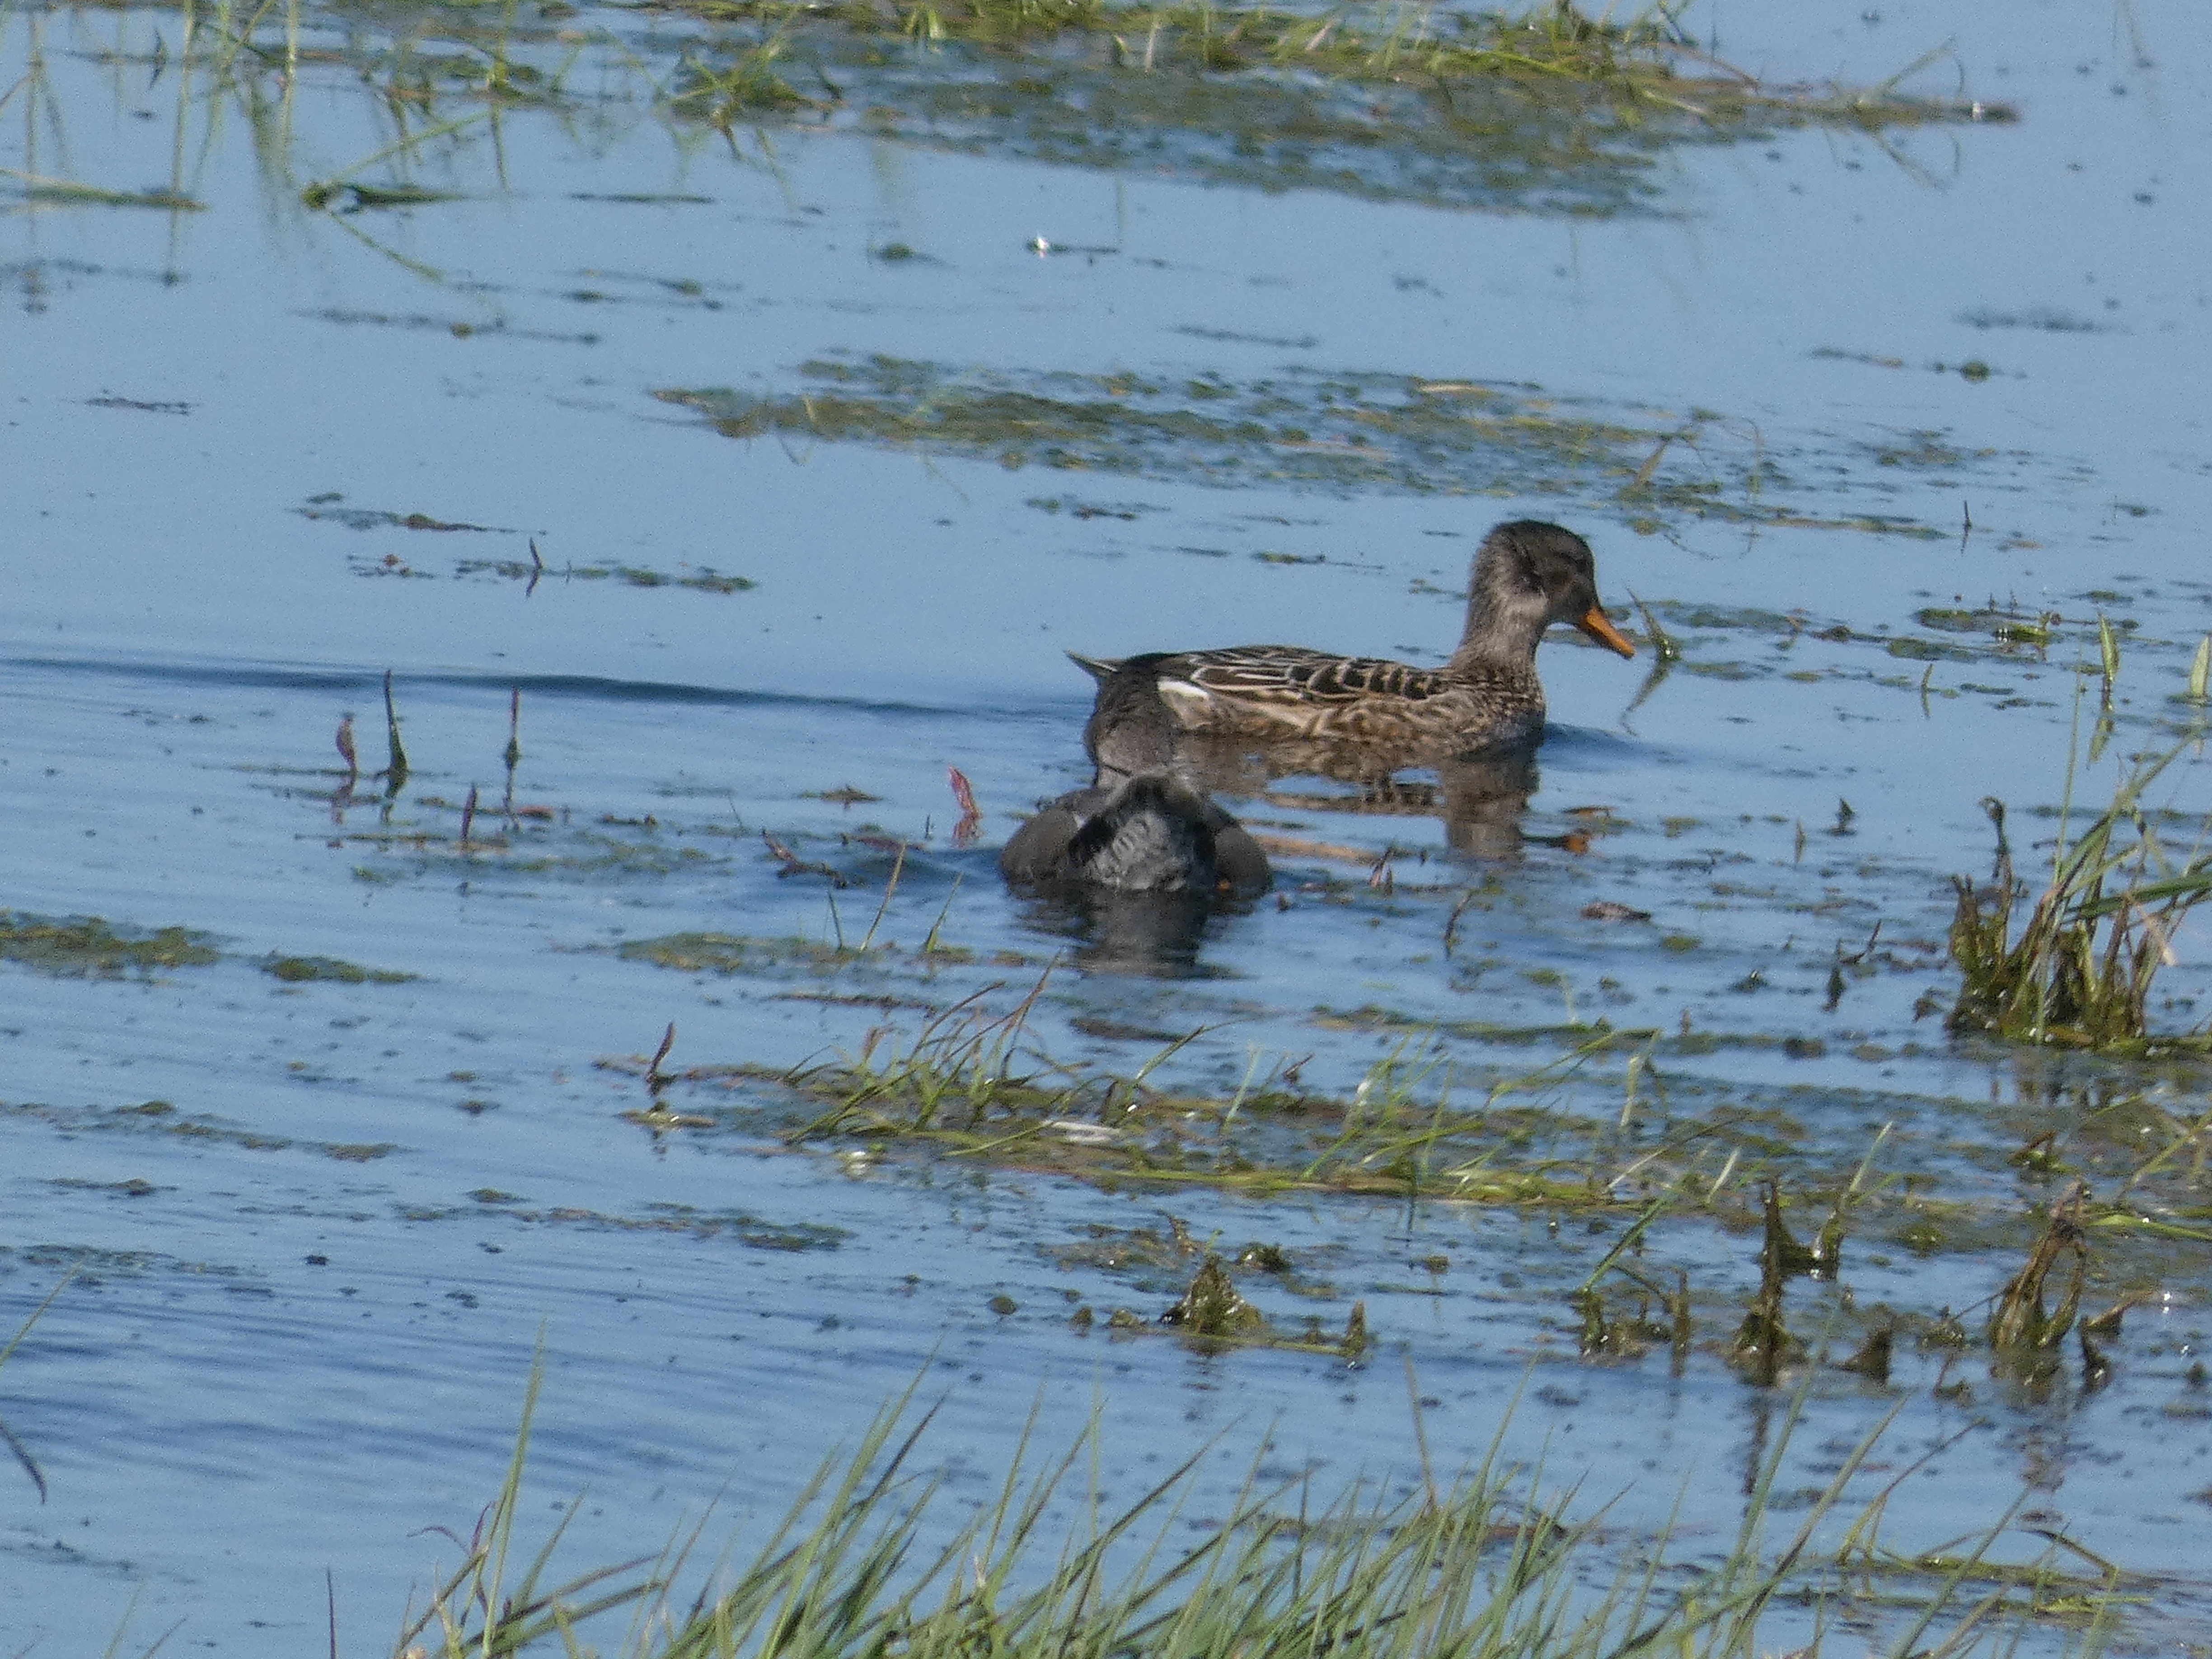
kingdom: Animalia
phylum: Chordata
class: Aves
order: Anseriformes
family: Anatidae
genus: Mareca
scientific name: Mareca strepera
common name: Knarand
